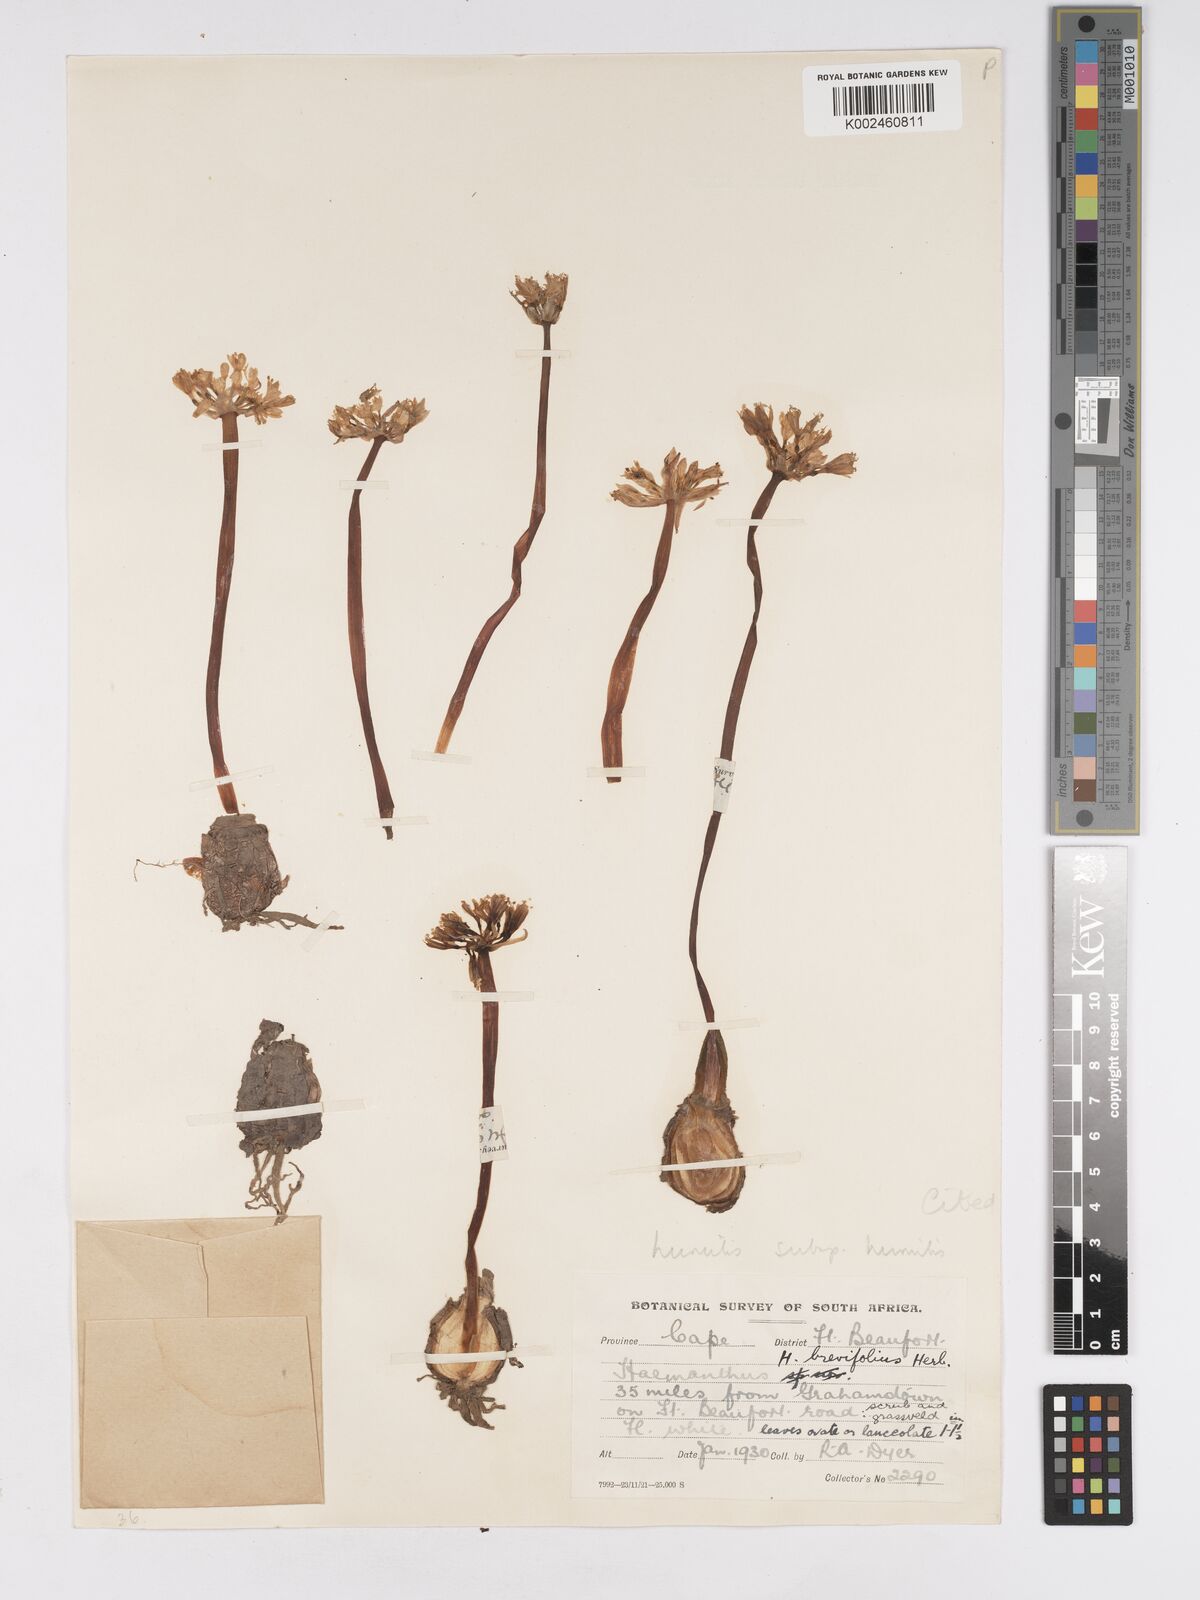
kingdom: Plantae
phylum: Tracheophyta
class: Liliopsida
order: Asparagales
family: Amaryllidaceae
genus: Haemanthus
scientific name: Haemanthus humilis
